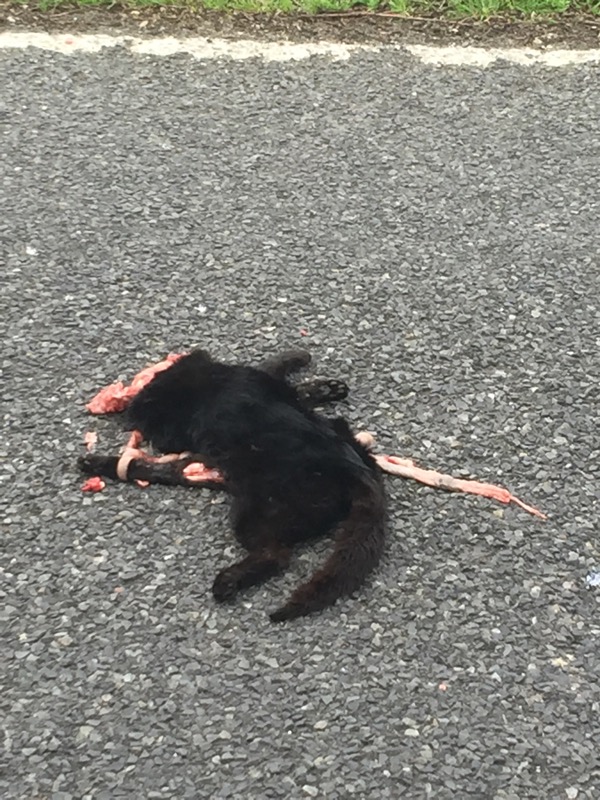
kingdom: Animalia
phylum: Chordata
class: Mammalia
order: Carnivora
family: Felidae
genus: Felis
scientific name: Felis catus
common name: Domestic cat
